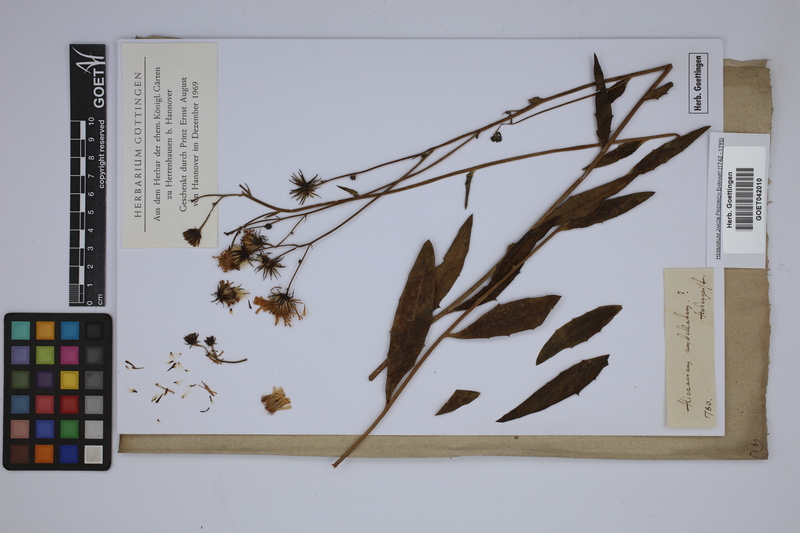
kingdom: Plantae
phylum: Tracheophyta
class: Magnoliopsida
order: Asterales
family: Asteraceae
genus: Hieracium
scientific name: Hieracium umbellatum
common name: Northern hawkweed
